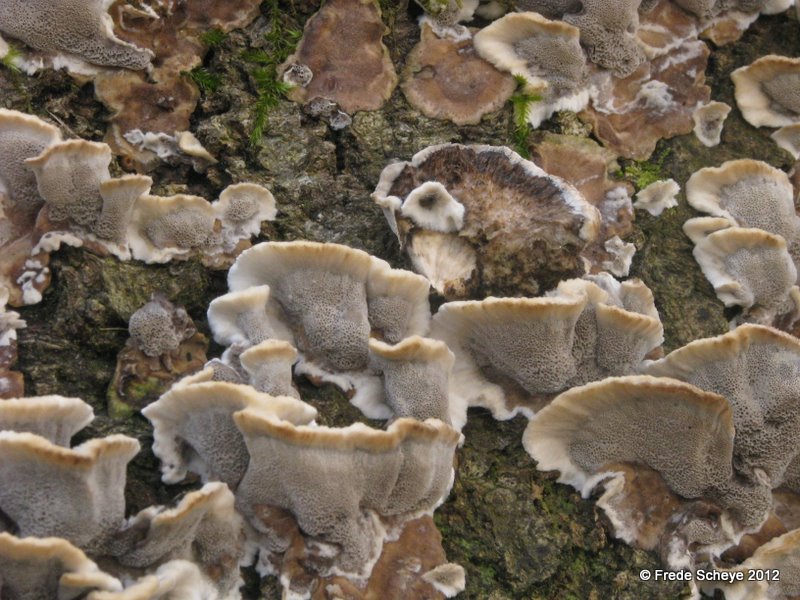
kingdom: Fungi
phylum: Basidiomycota
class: Agaricomycetes
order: Polyporales
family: Phanerochaetaceae
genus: Bjerkandera
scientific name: Bjerkandera adusta
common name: sveden sodporesvamp
